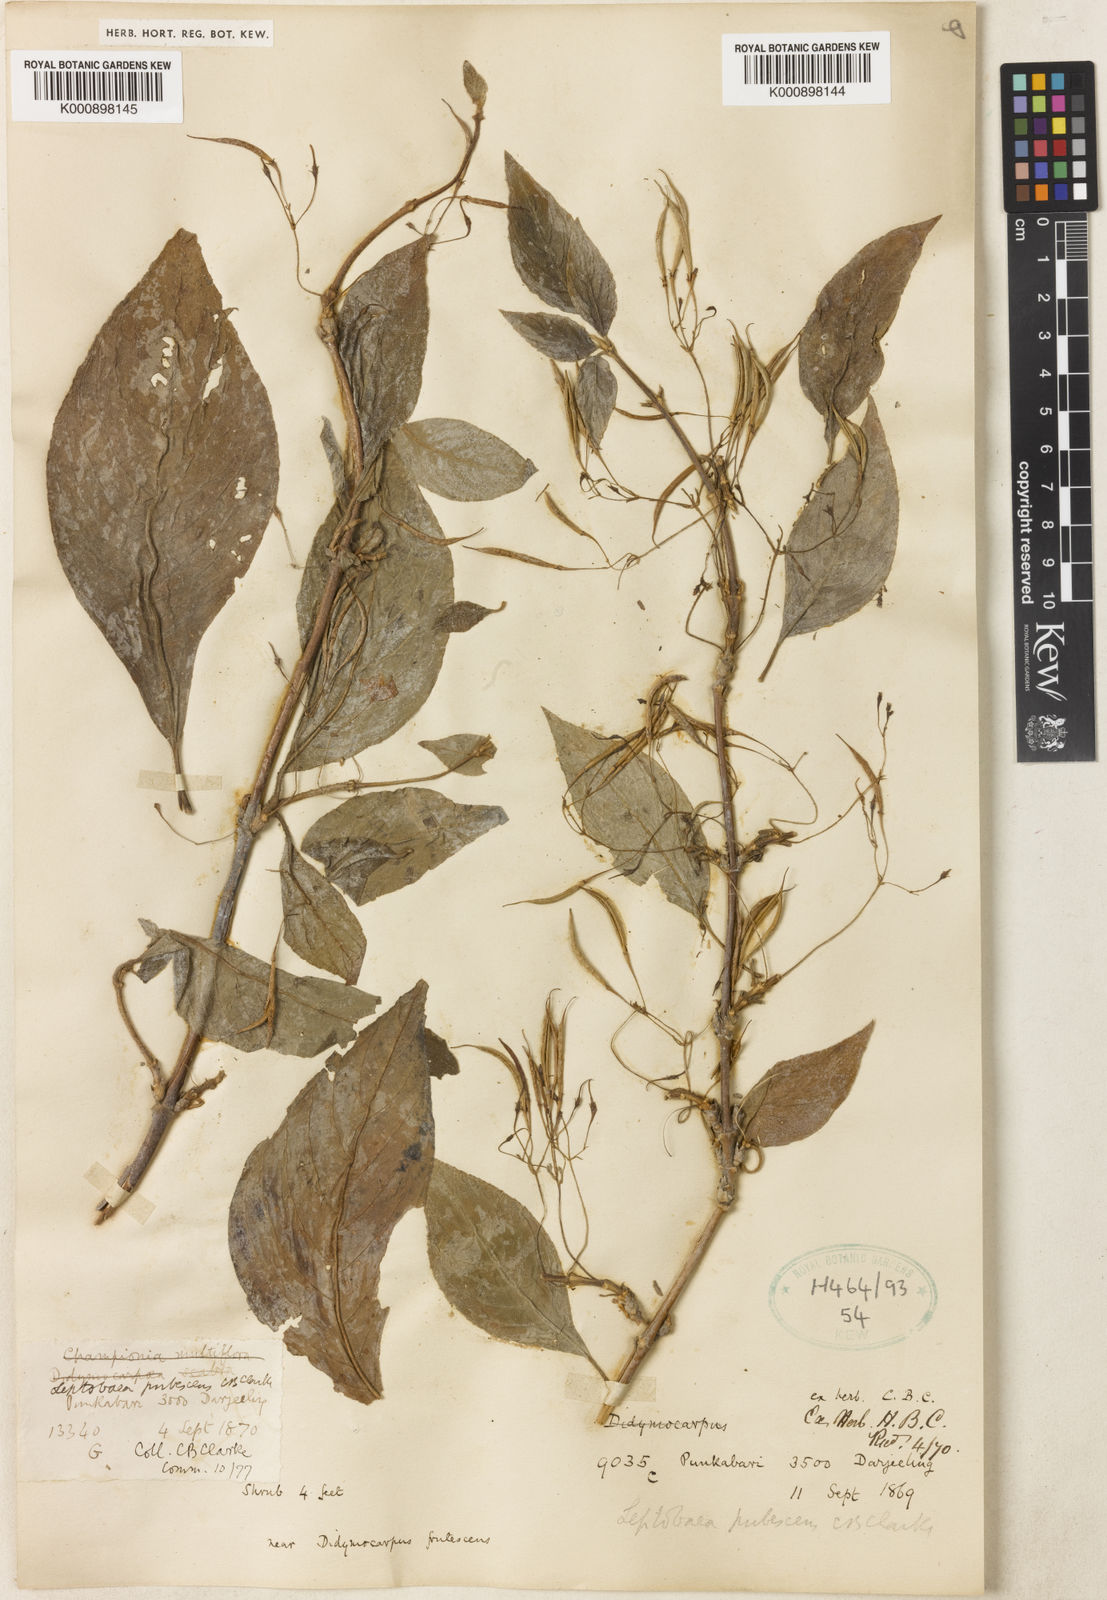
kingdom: Plantae
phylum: Tracheophyta
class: Magnoliopsida
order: Lamiales
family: Gesneriaceae
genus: Leptoboea
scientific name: Leptoboea multiflora
